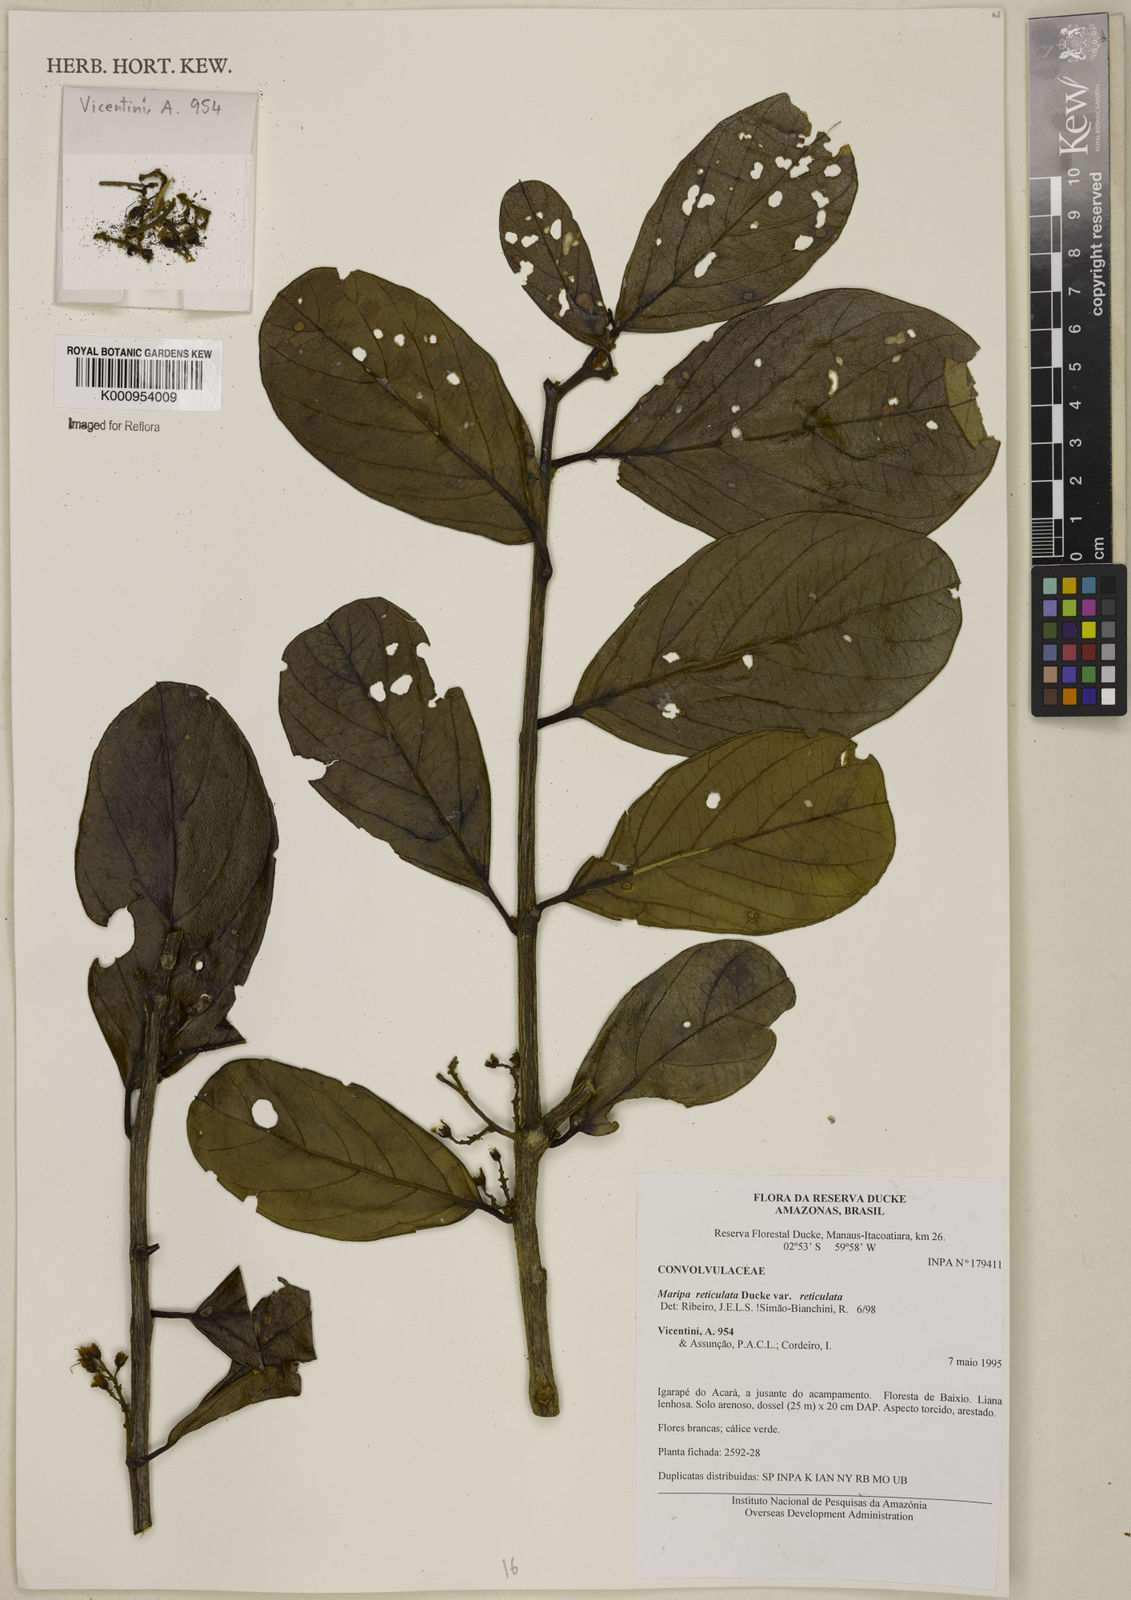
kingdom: Plantae
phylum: Tracheophyta
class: Magnoliopsida
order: Solanales
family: Convolvulaceae
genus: Maripa
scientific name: Maripa reticulata
